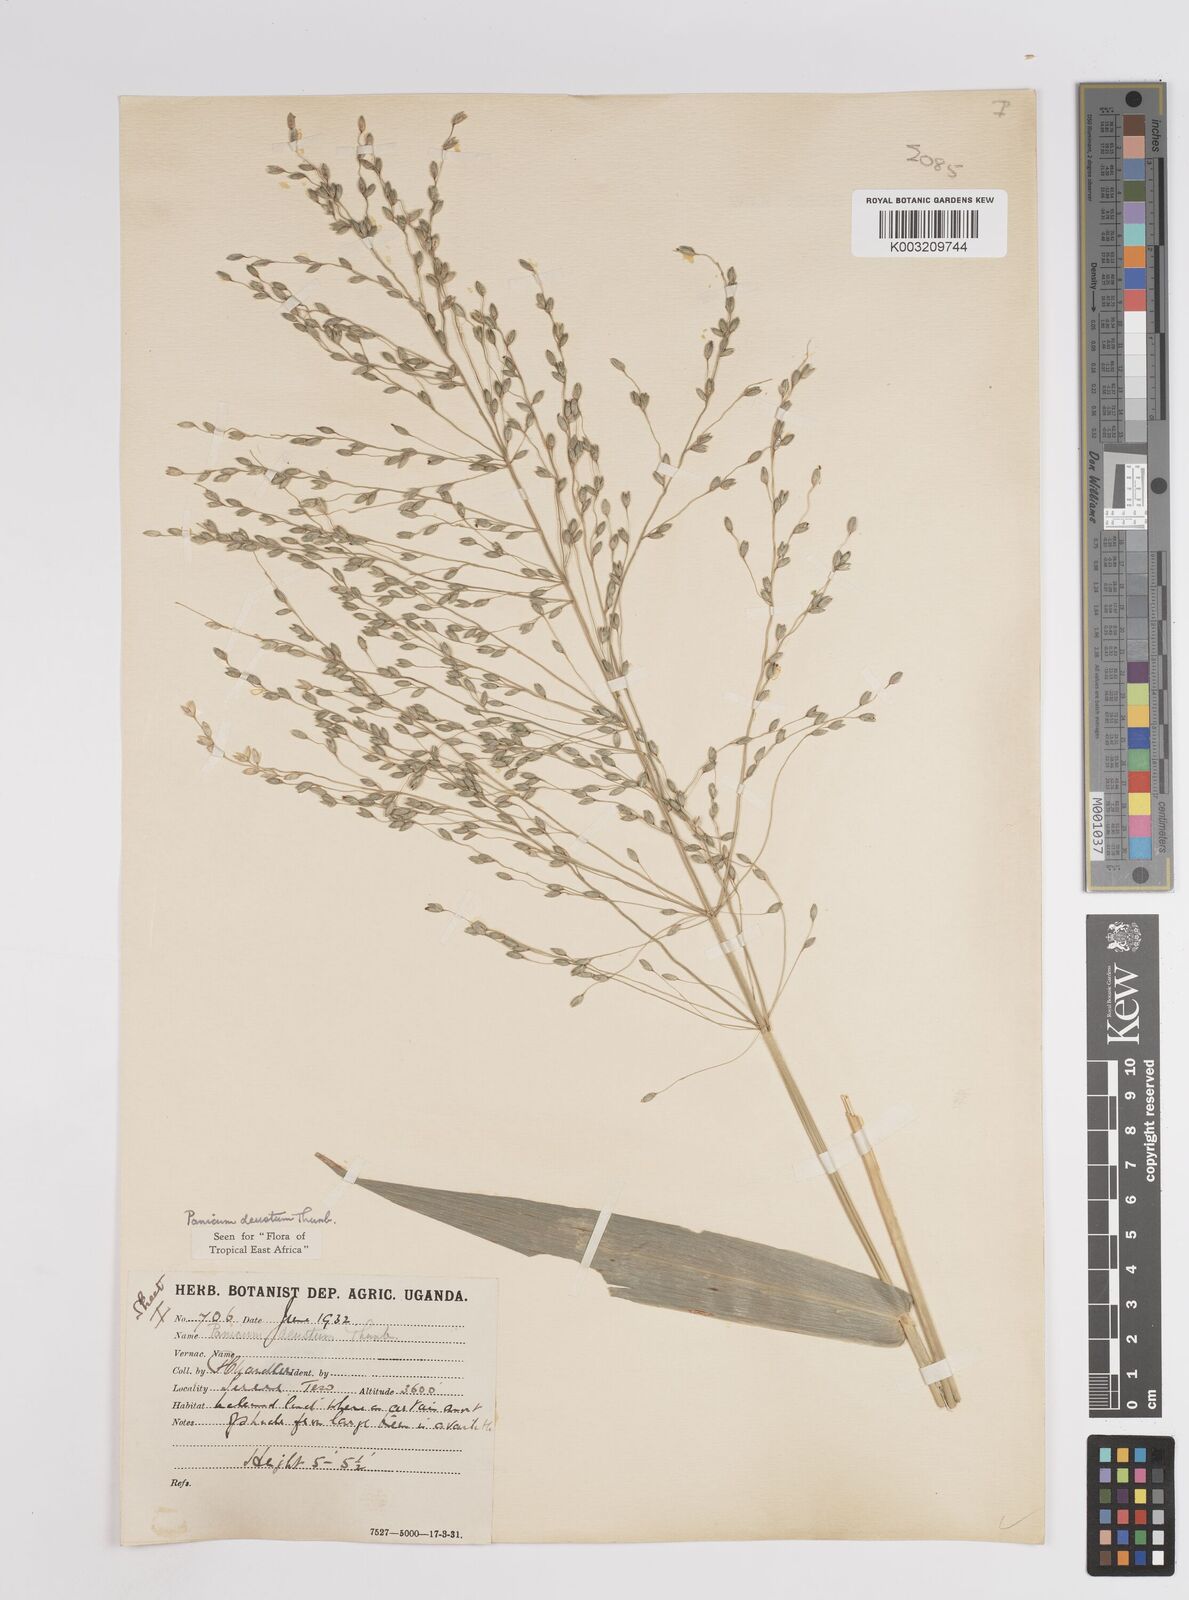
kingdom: Plantae
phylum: Tracheophyta
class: Liliopsida
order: Poales
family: Poaceae
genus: Panicum
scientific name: Panicum
